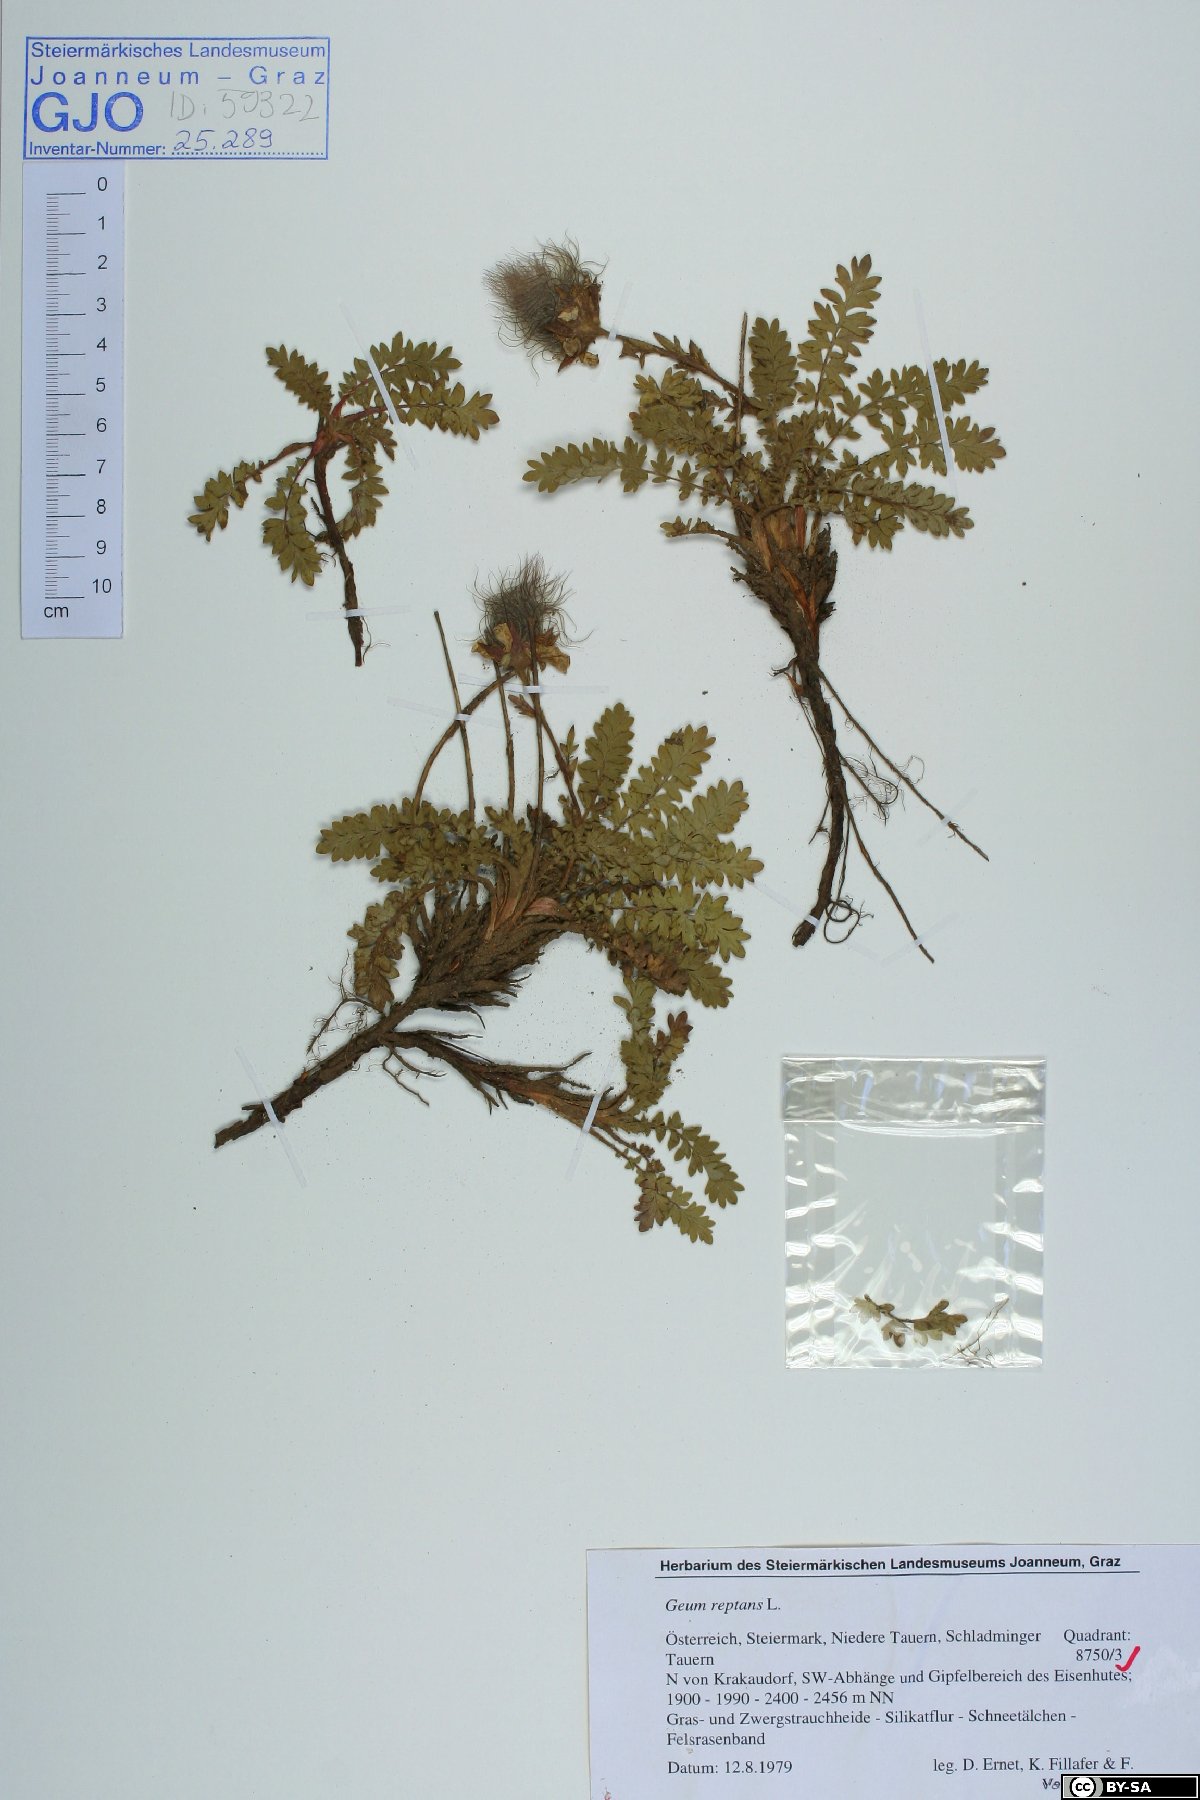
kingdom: Plantae
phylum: Tracheophyta
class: Magnoliopsida
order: Rosales
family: Rosaceae
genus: Geum
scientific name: Geum reptans
